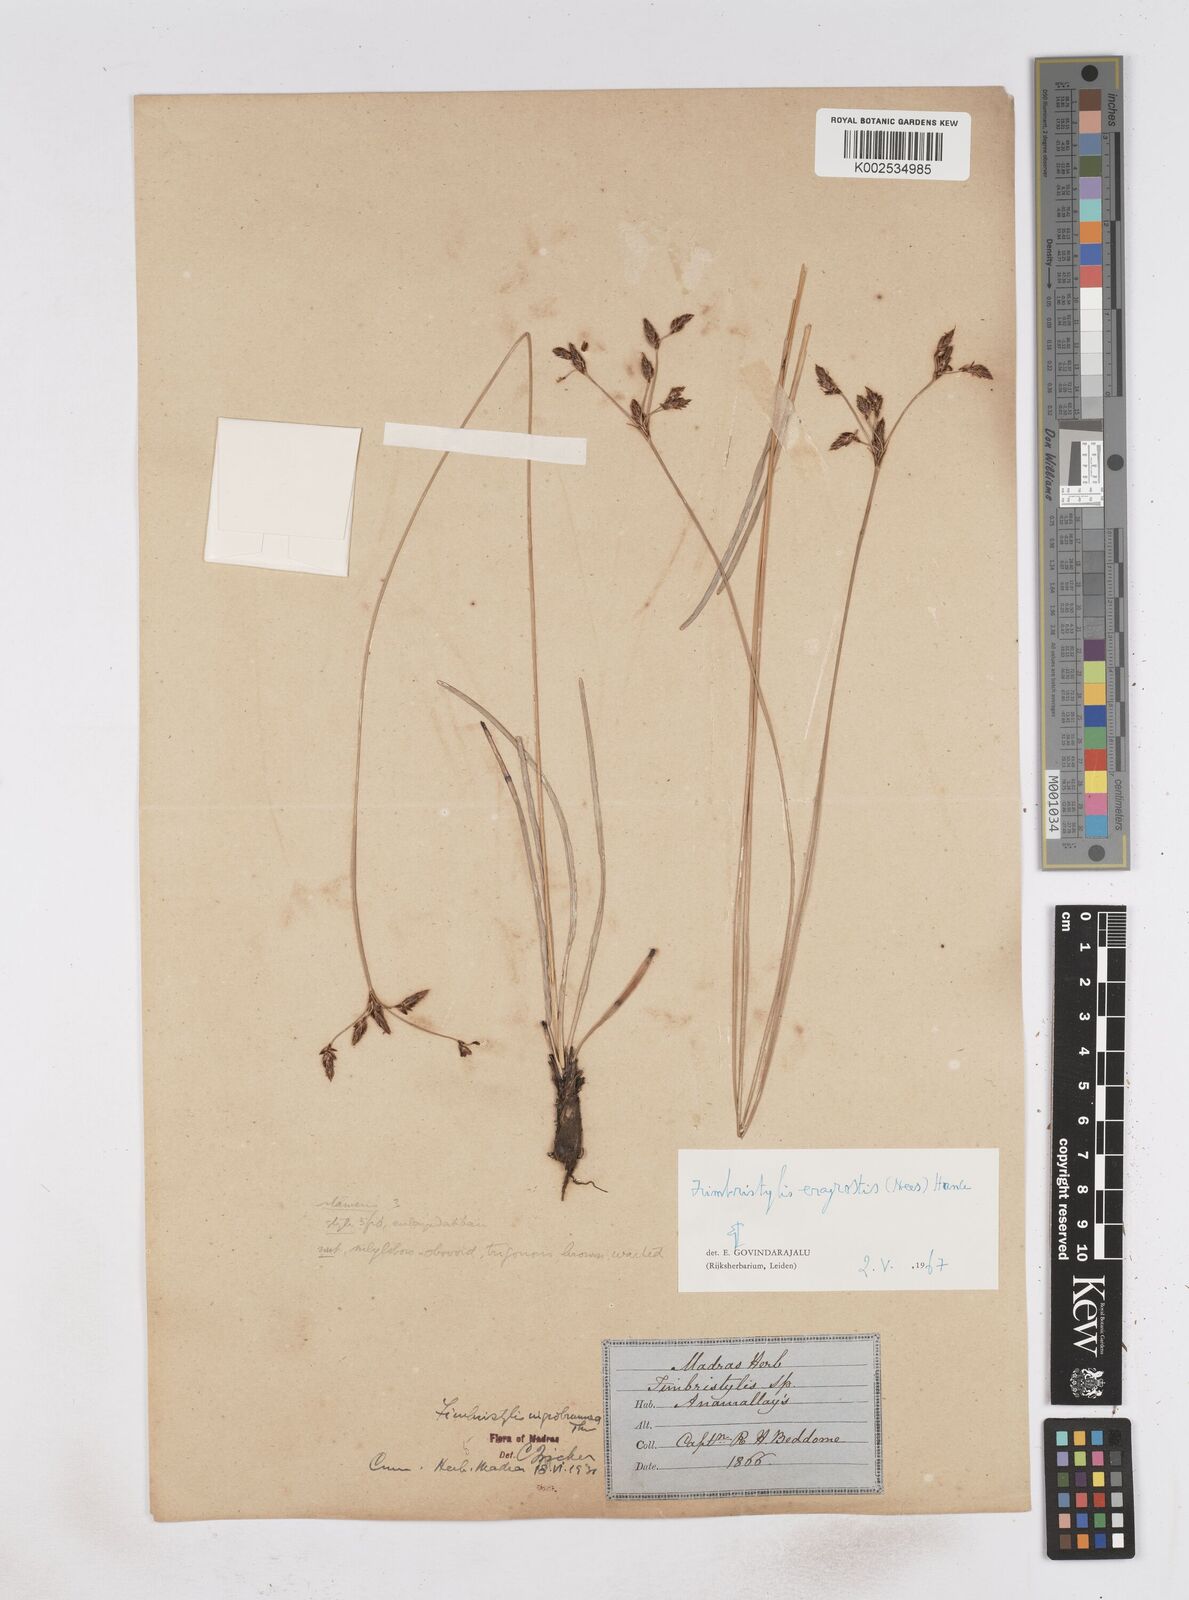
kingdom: Plantae
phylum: Tracheophyta
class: Liliopsida
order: Poales
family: Cyperaceae
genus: Fimbristylis
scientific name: Fimbristylis nigrobrunnea
